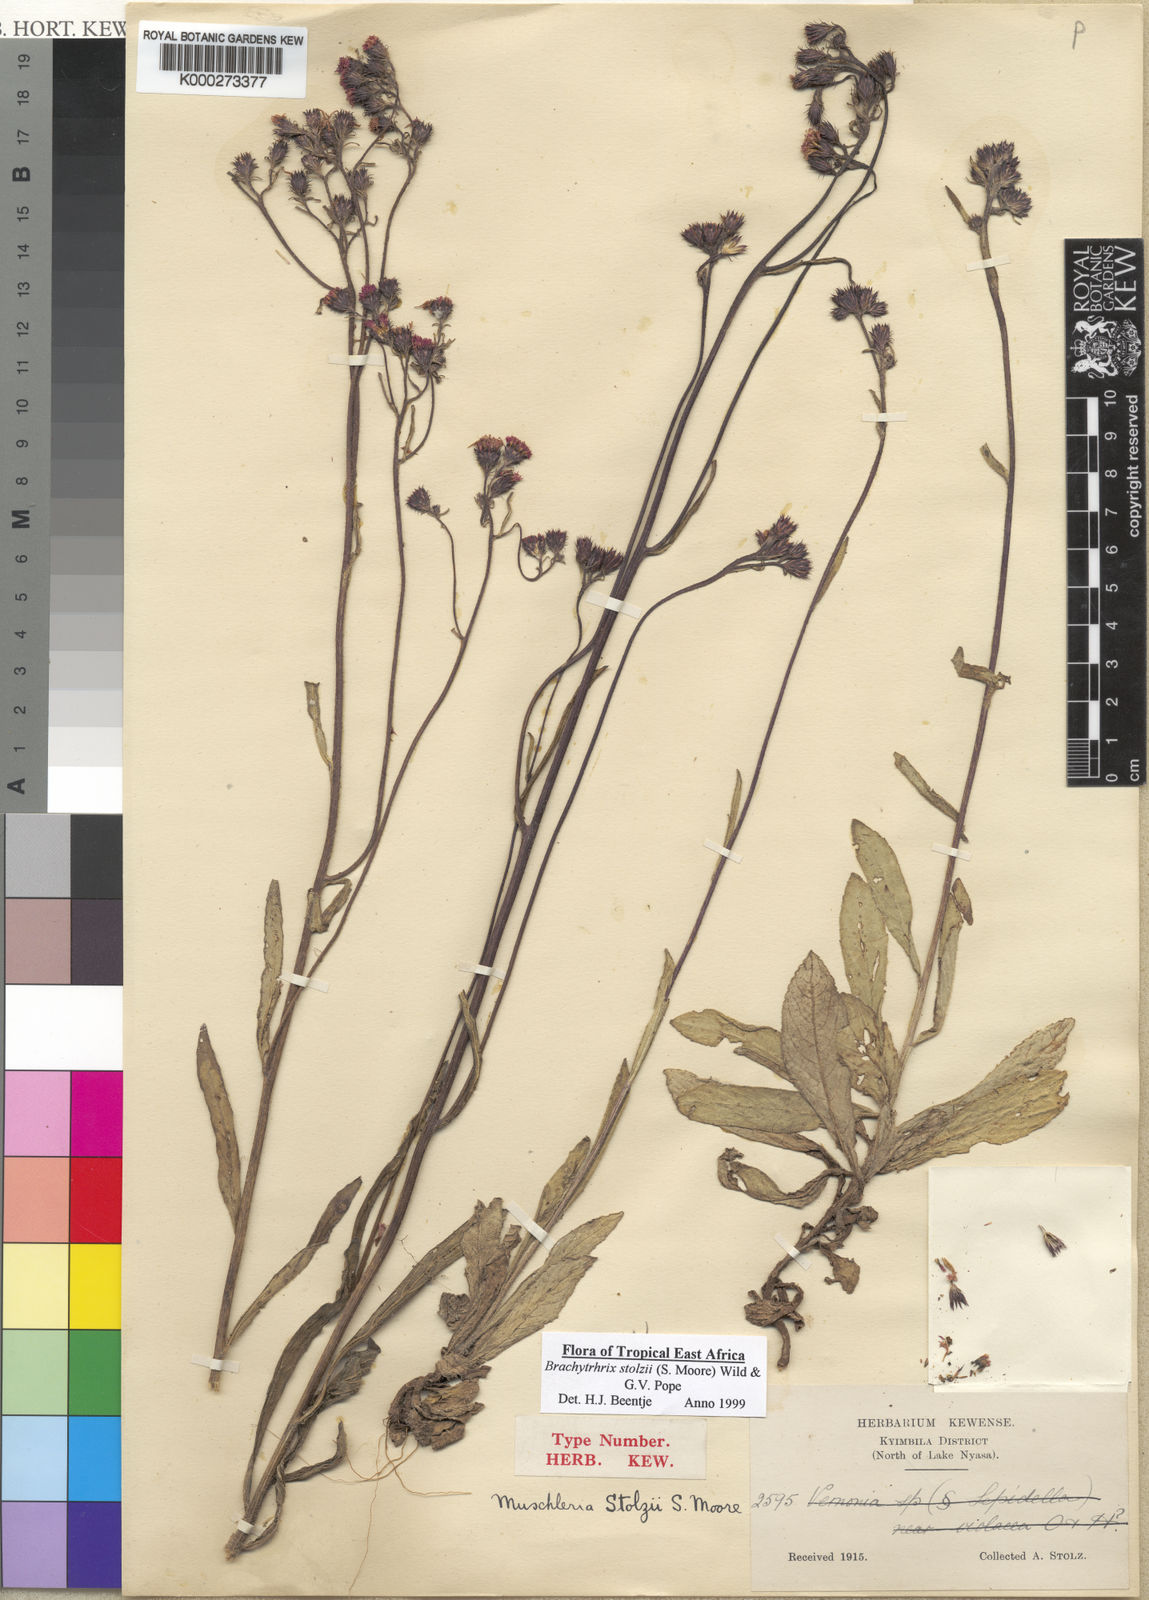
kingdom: Plantae
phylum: Tracheophyta
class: Magnoliopsida
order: Asterales
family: Asteraceae
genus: Brachythrix
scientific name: Brachythrix stolzii
